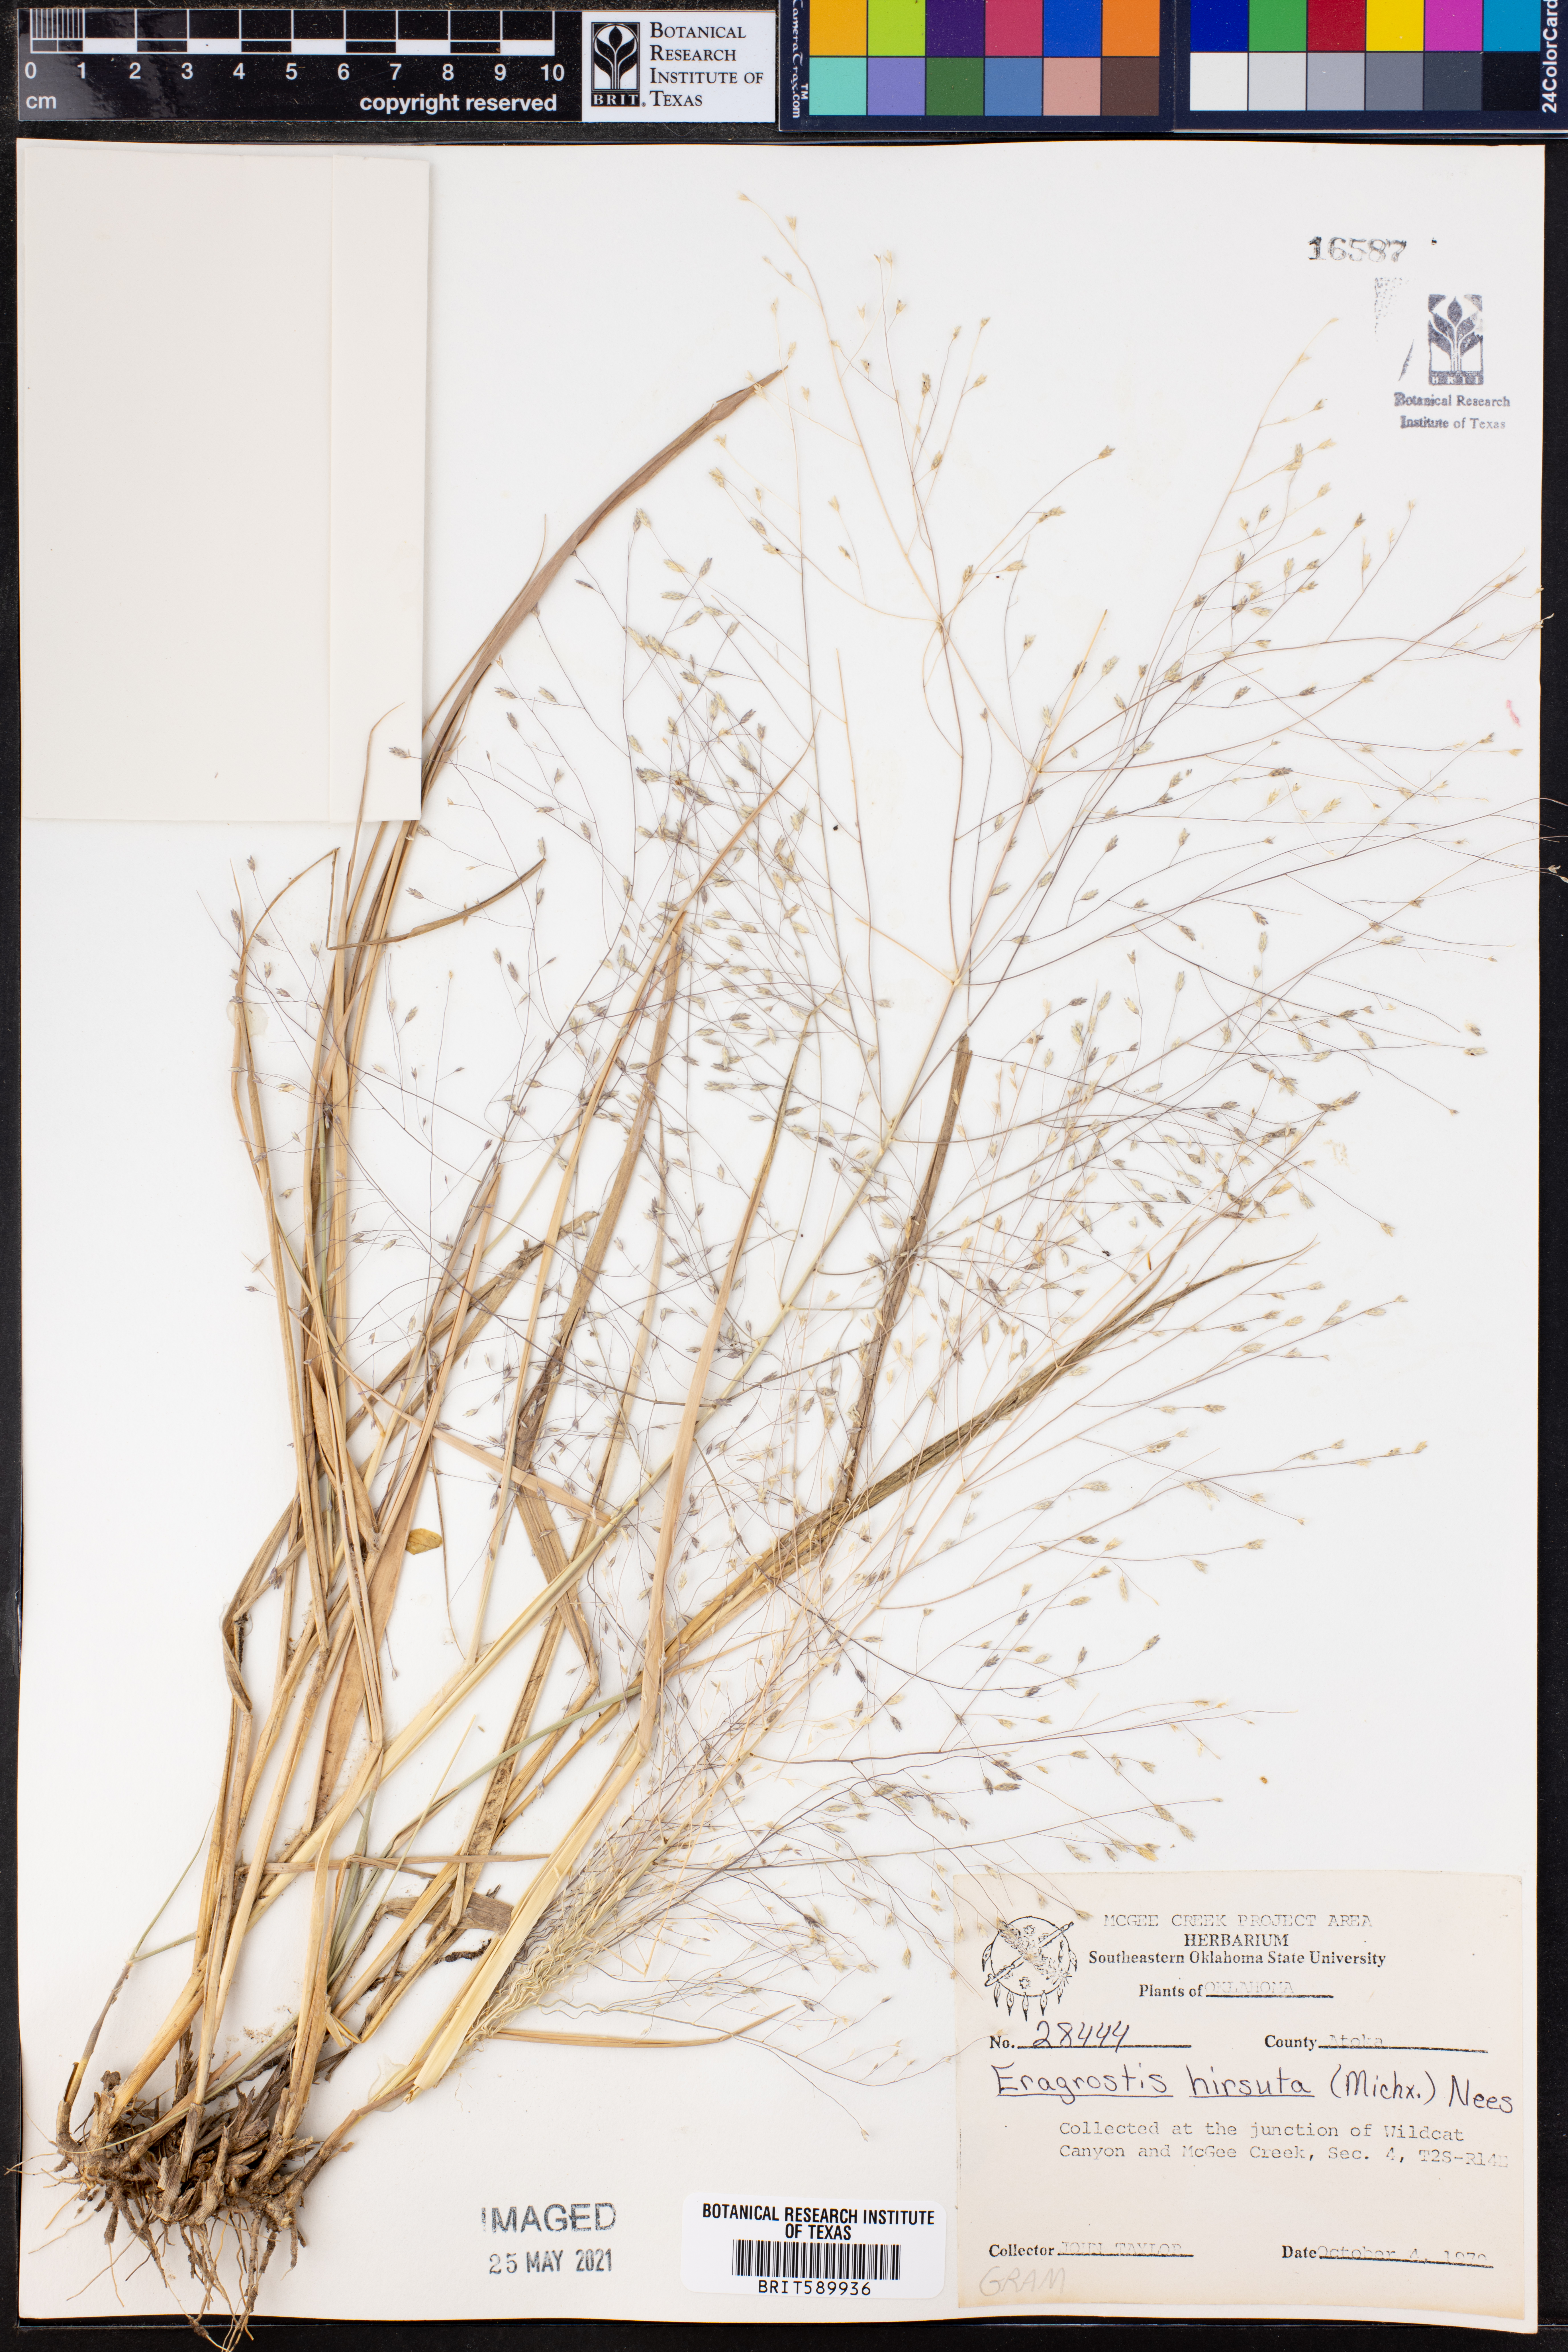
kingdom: Plantae
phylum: Tracheophyta
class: Liliopsida
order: Poales
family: Poaceae
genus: Eragrostis
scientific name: Eragrostis hirsuta
